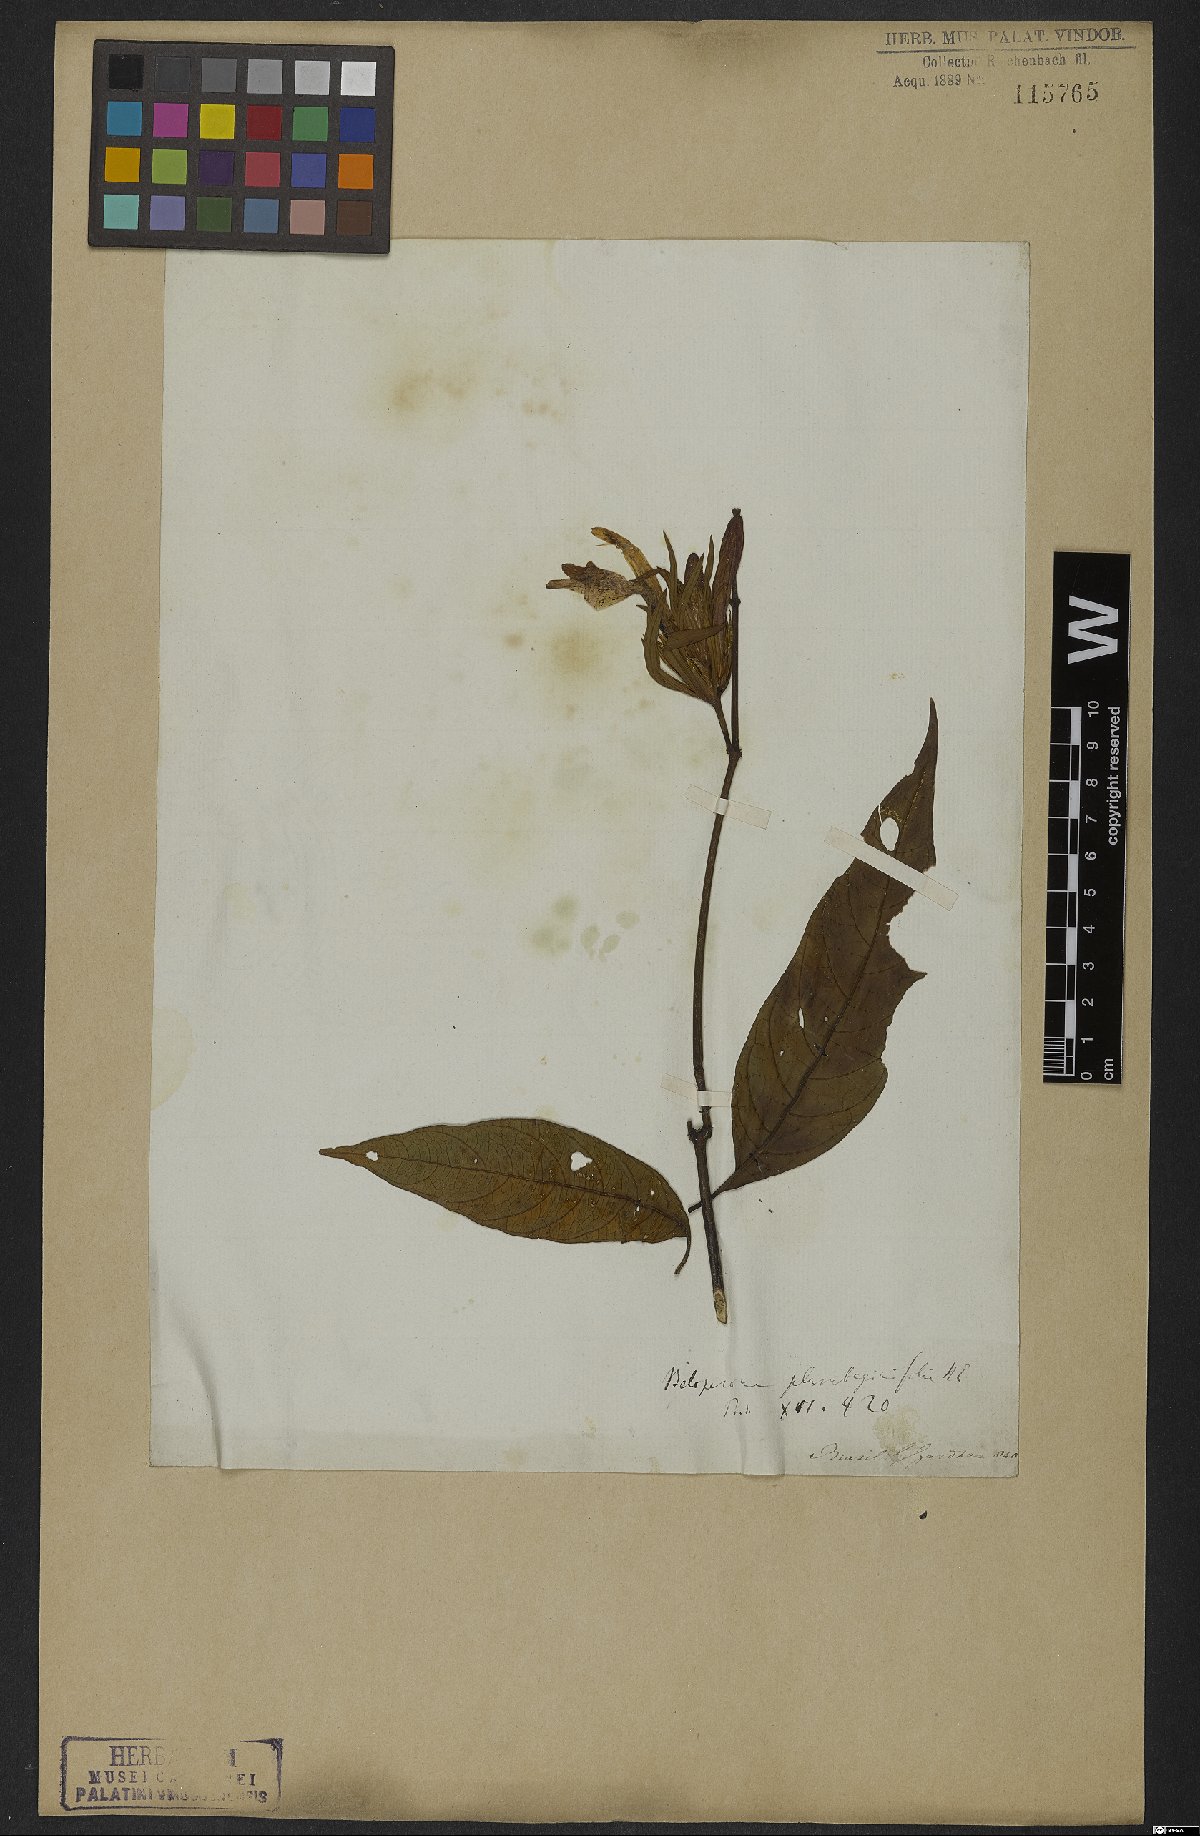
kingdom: Plantae
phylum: Tracheophyta
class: Magnoliopsida
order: Lamiales
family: Acanthaceae
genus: Justicia
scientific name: Justicia plumbaginifolia
